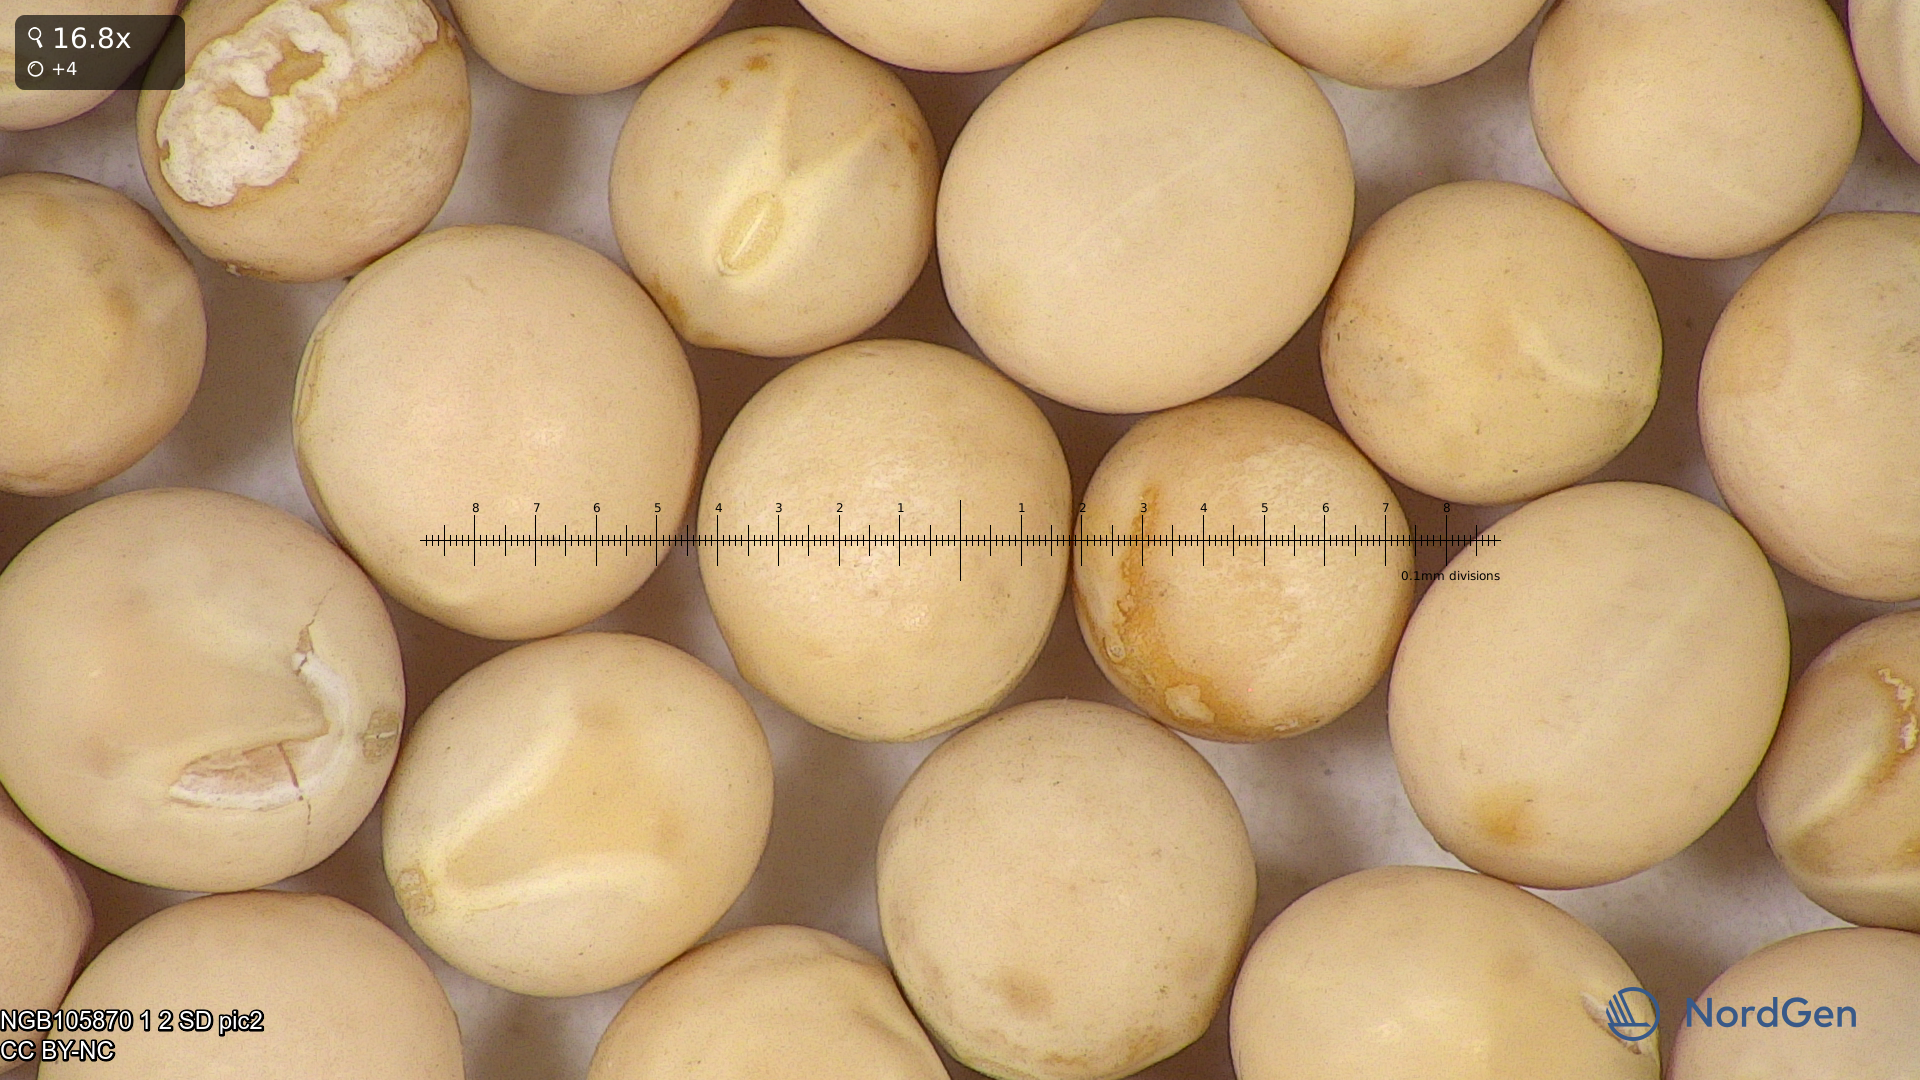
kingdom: Plantae
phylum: Tracheophyta
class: Magnoliopsida
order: Fabales
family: Fabaceae
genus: Lathyrus
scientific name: Lathyrus oleraceus
